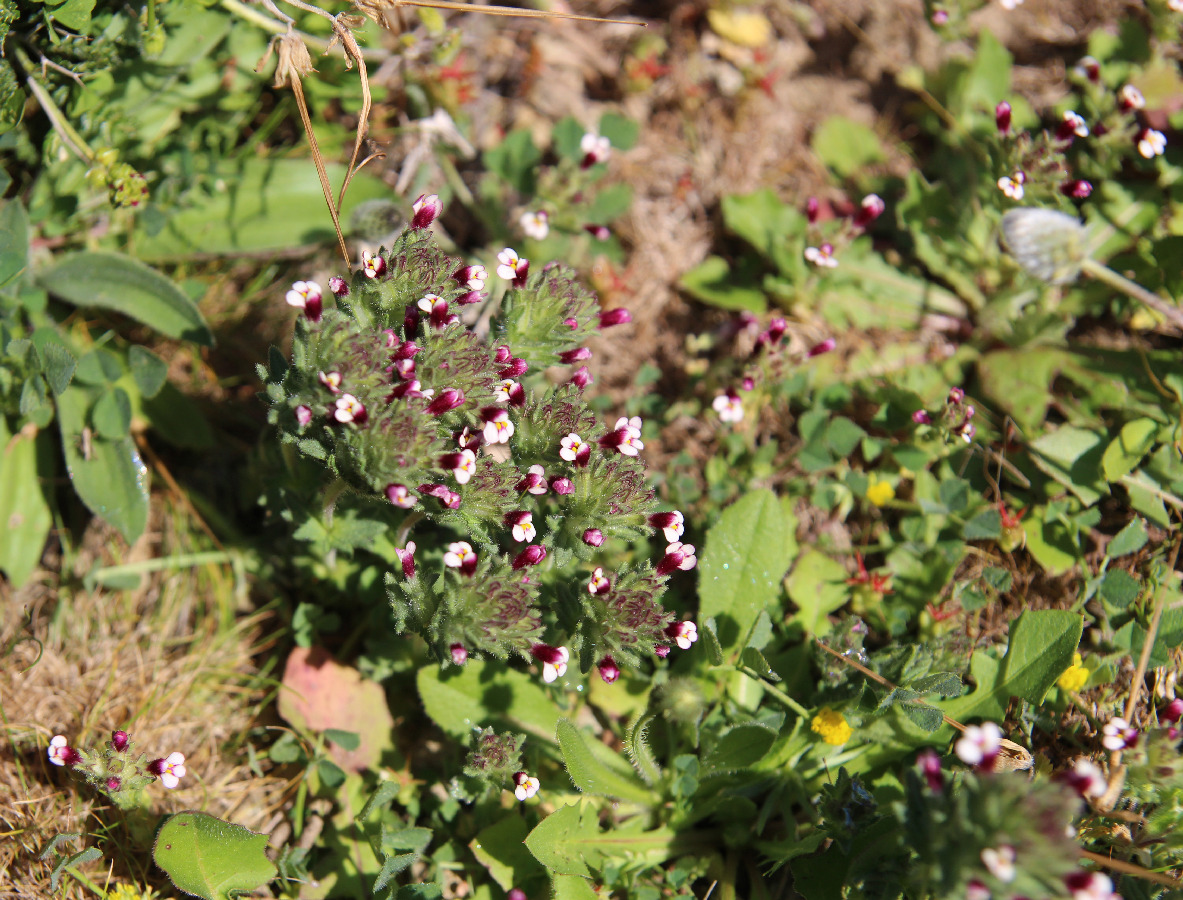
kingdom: Plantae
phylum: Tracheophyta
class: Magnoliopsida
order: Lamiales
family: Orobanchaceae
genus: Parentucellia
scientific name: Parentucellia latifolia
